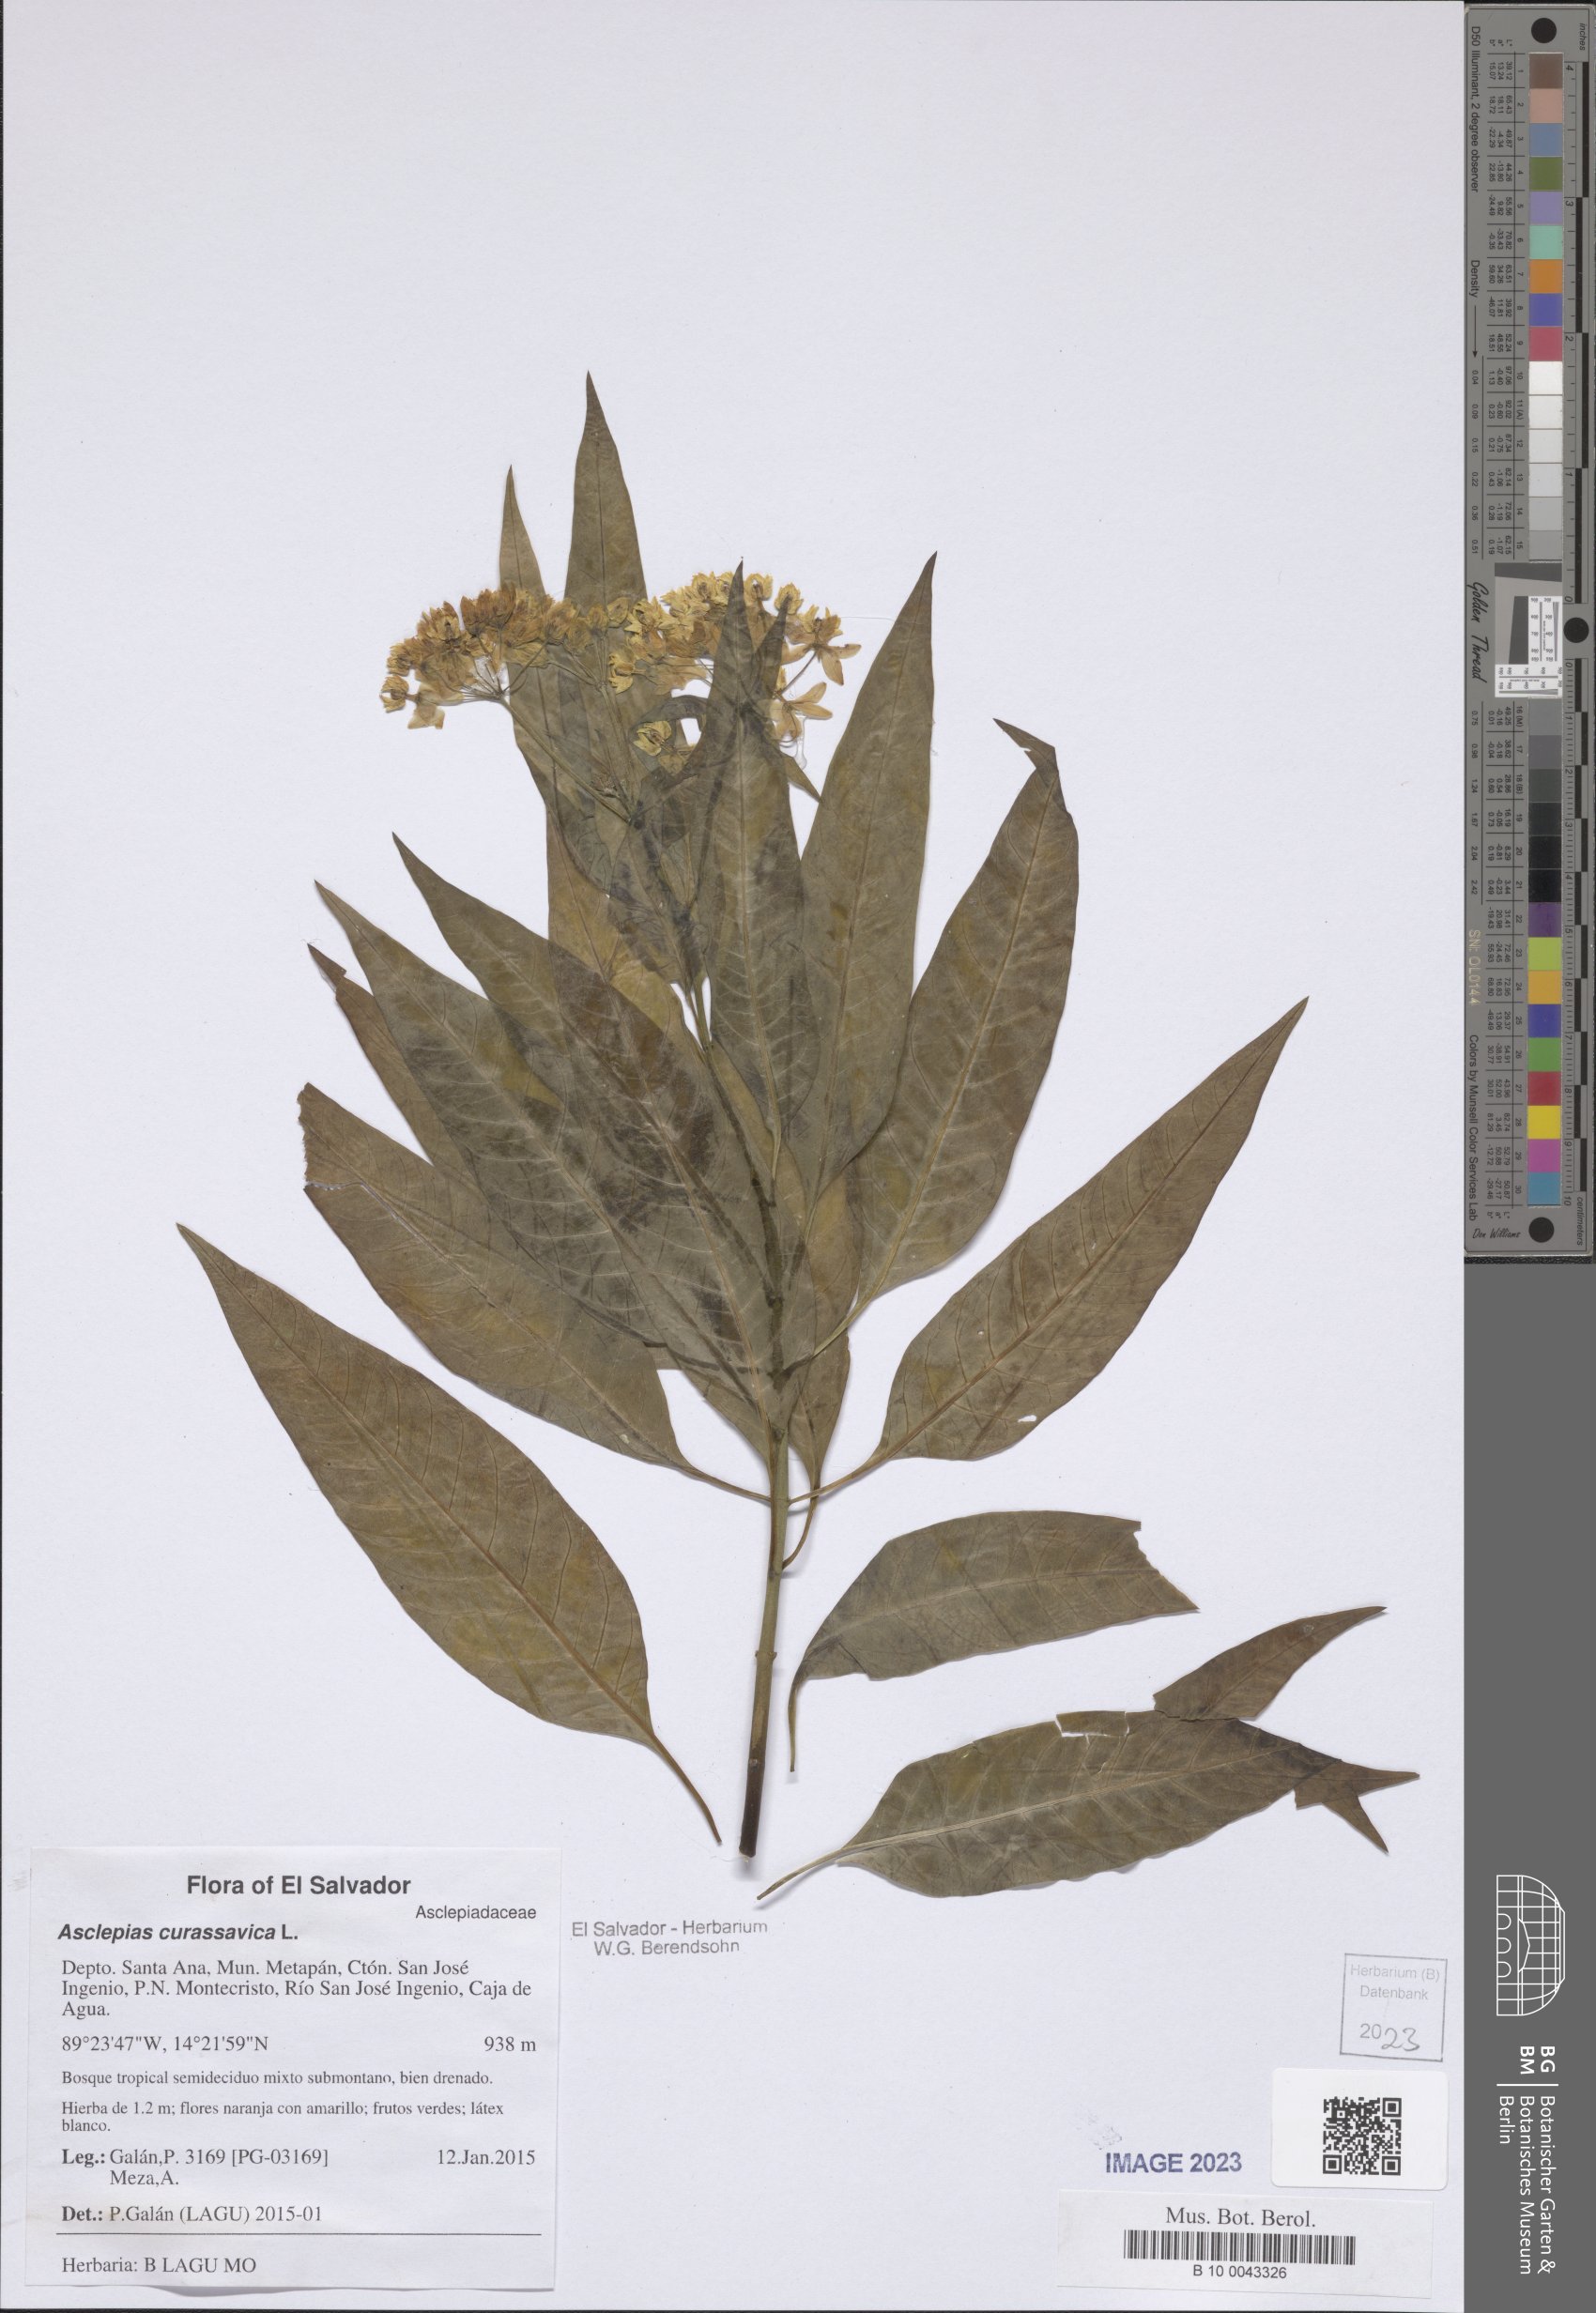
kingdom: Plantae
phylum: Tracheophyta
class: Magnoliopsida
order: Gentianales
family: Apocynaceae
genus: Asclepias
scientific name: Asclepias curassavica
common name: Bloodflower
